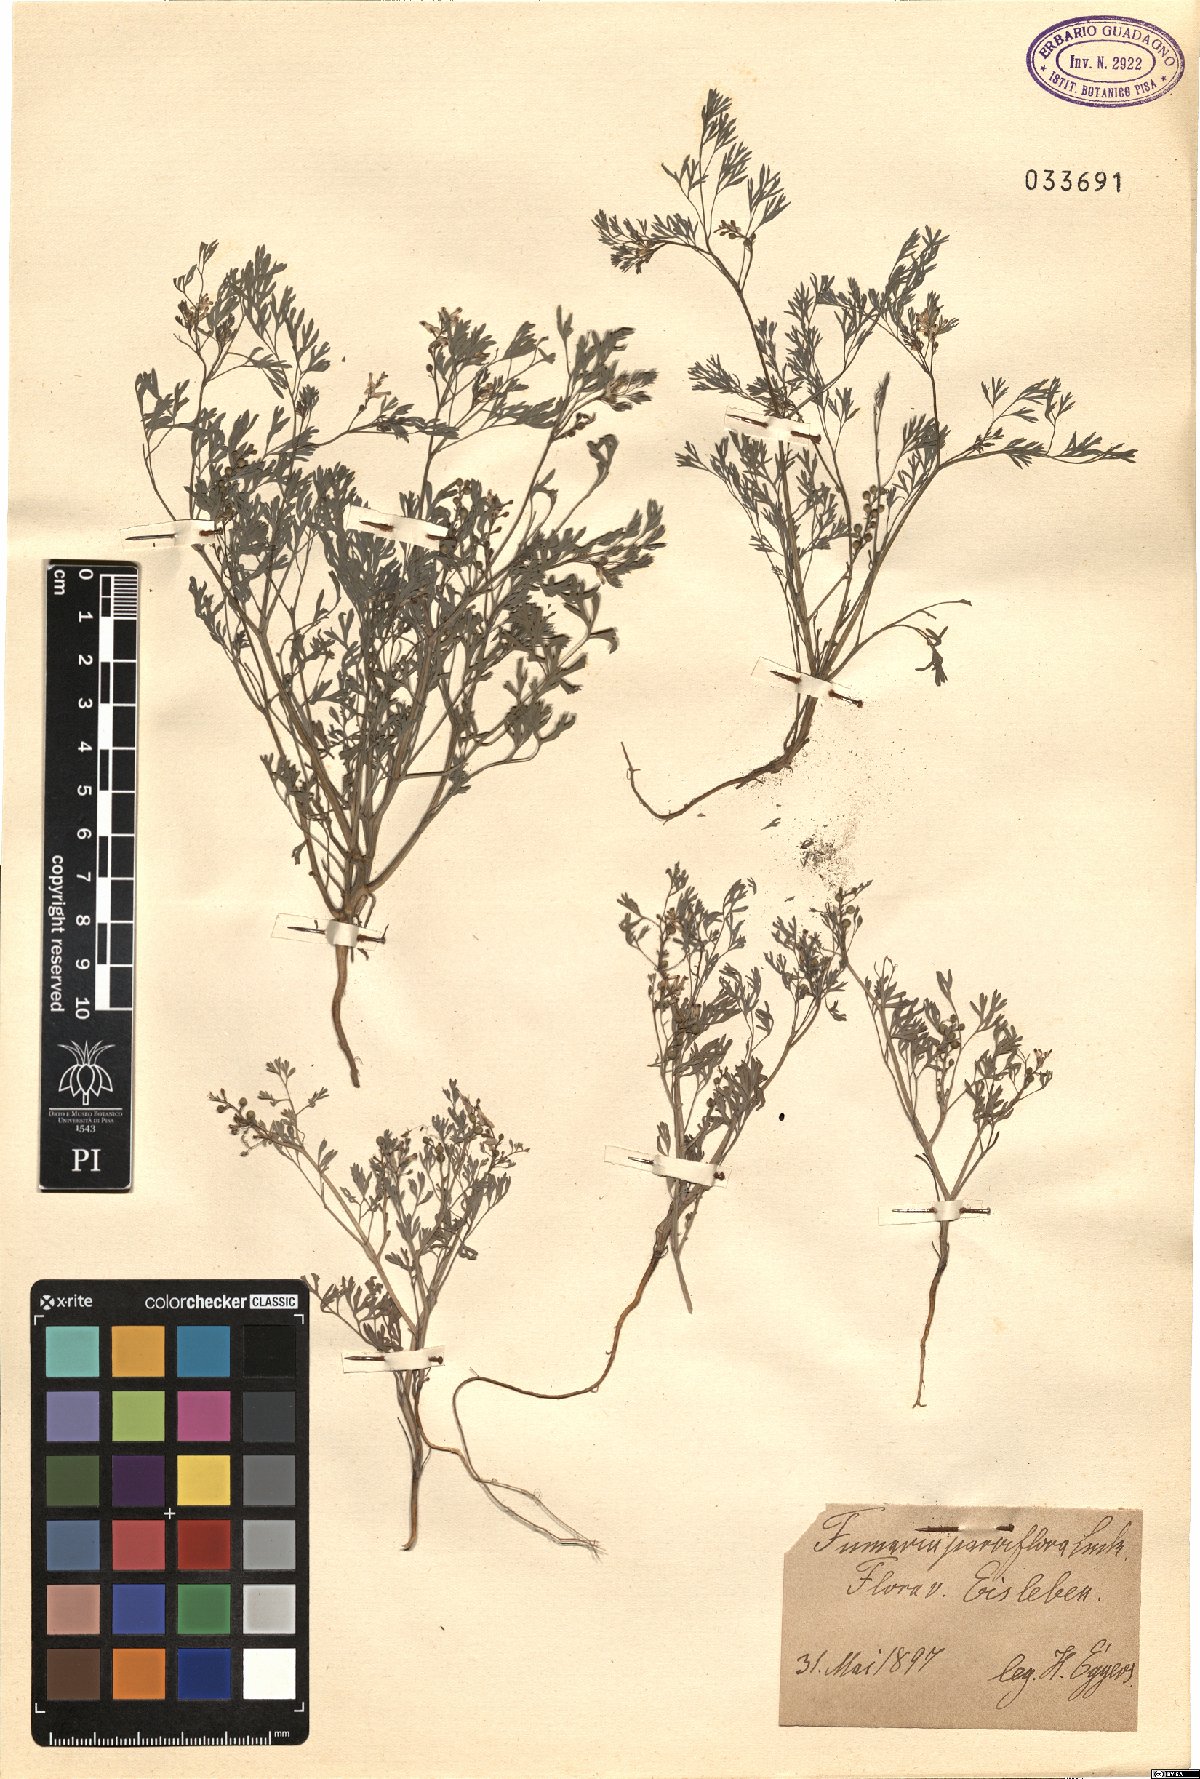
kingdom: Plantae
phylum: Tracheophyta
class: Magnoliopsida
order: Ranunculales
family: Papaveraceae
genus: Fumaria
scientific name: Fumaria parviflora
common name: Fine-leaved fumitory
